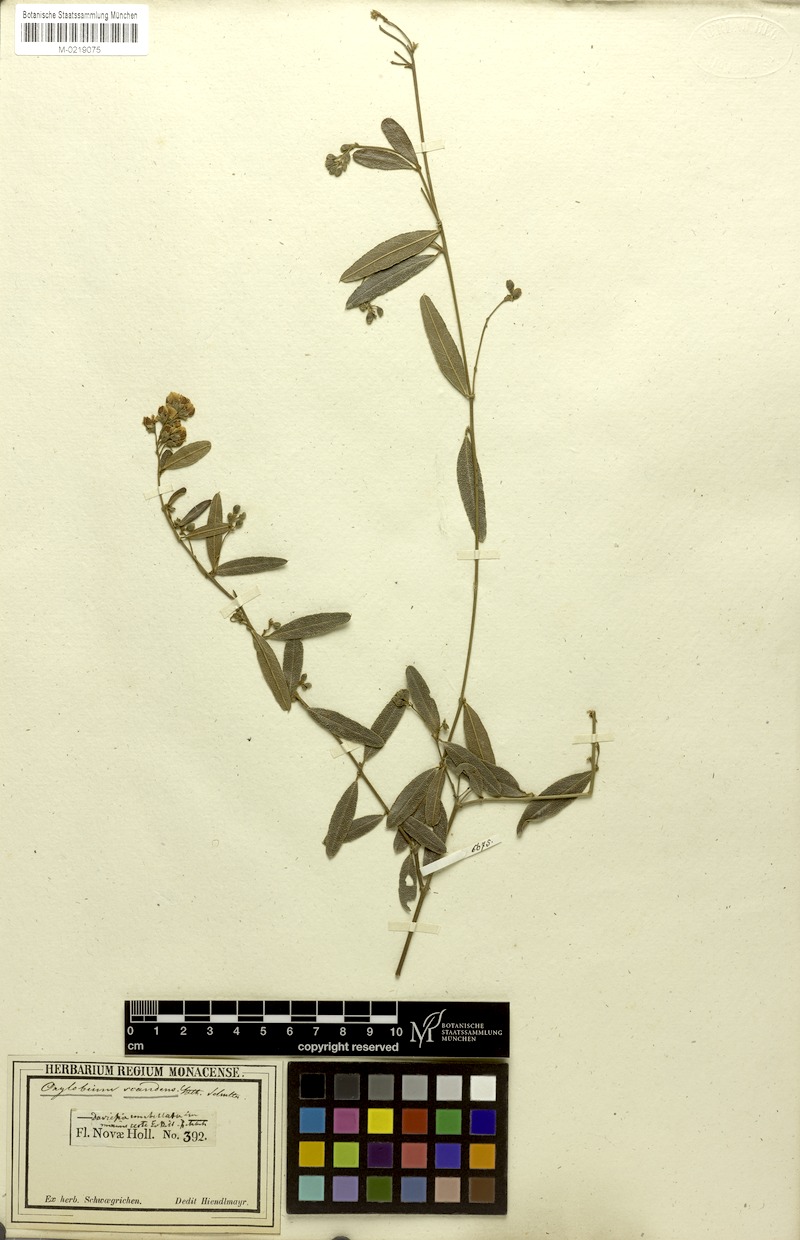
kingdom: Plantae
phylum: Tracheophyta
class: Magnoliopsida
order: Fabales
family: Fabaceae
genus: Podolobium
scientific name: Podolobium scandens
